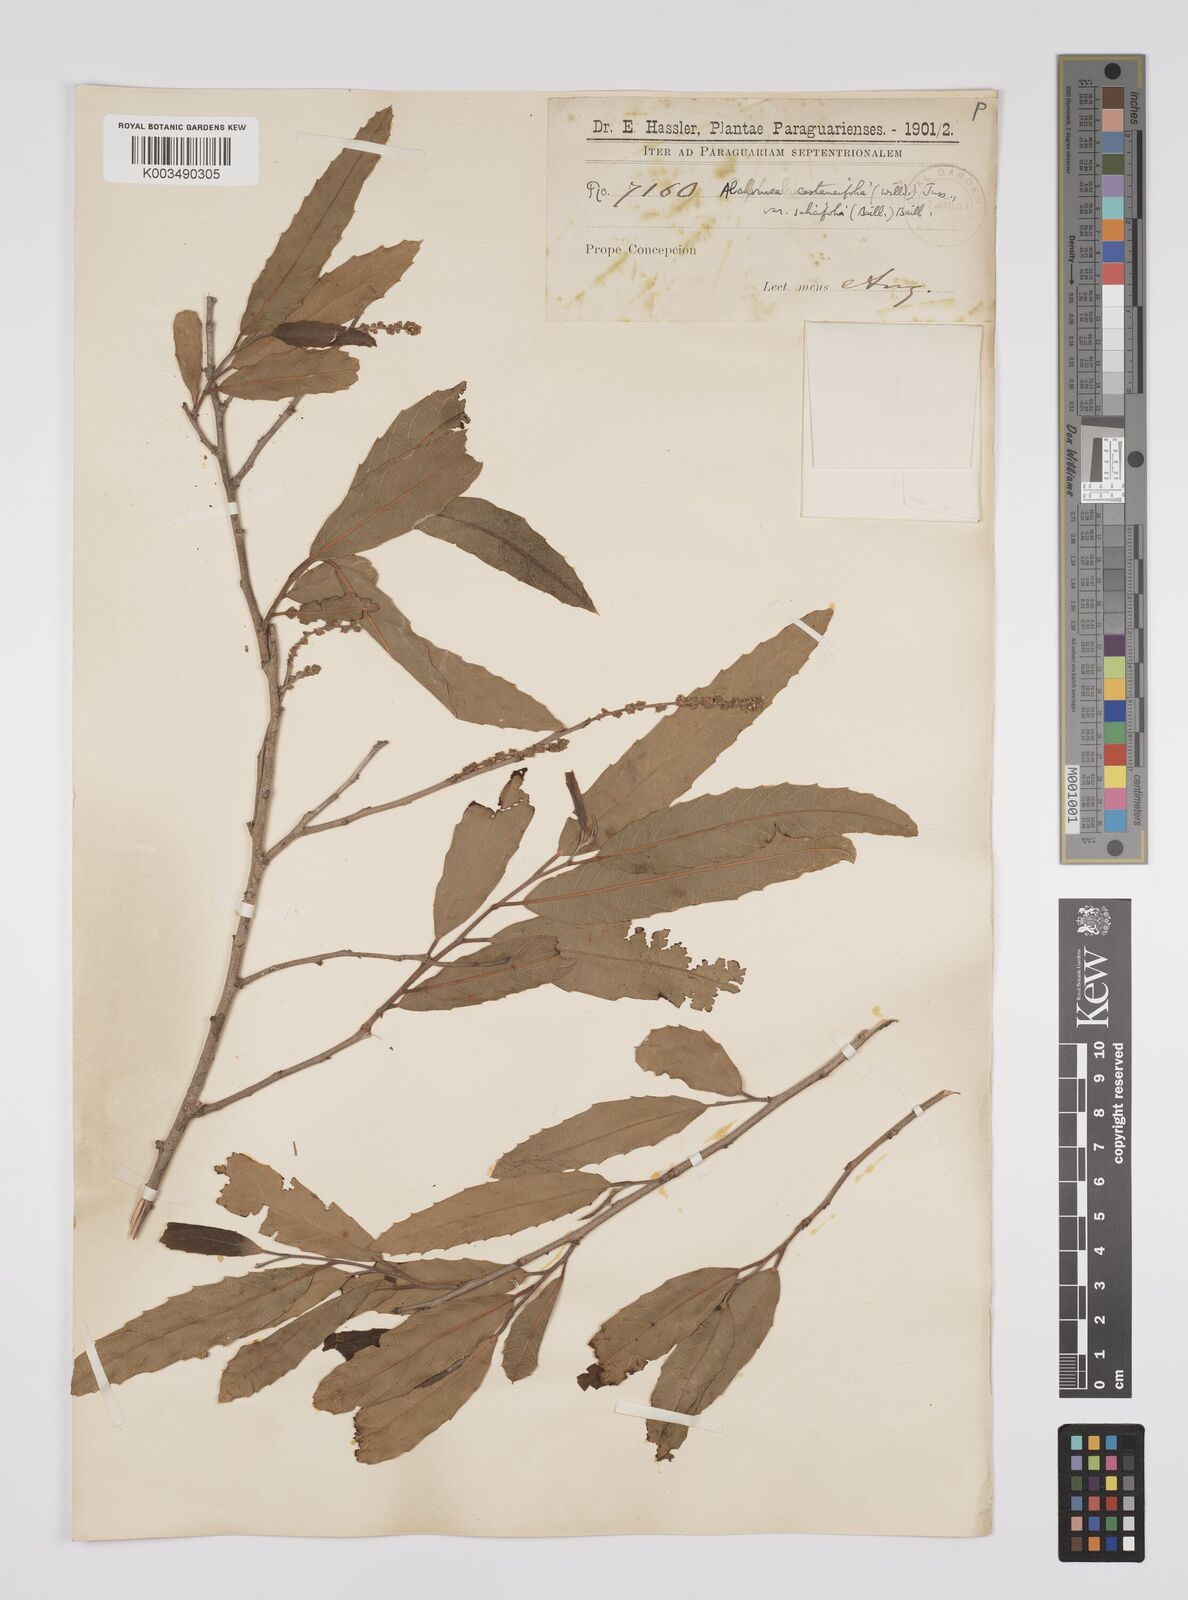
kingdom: Plantae
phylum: Tracheophyta
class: Magnoliopsida
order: Malpighiales
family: Euphorbiaceae
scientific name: Euphorbiaceae
